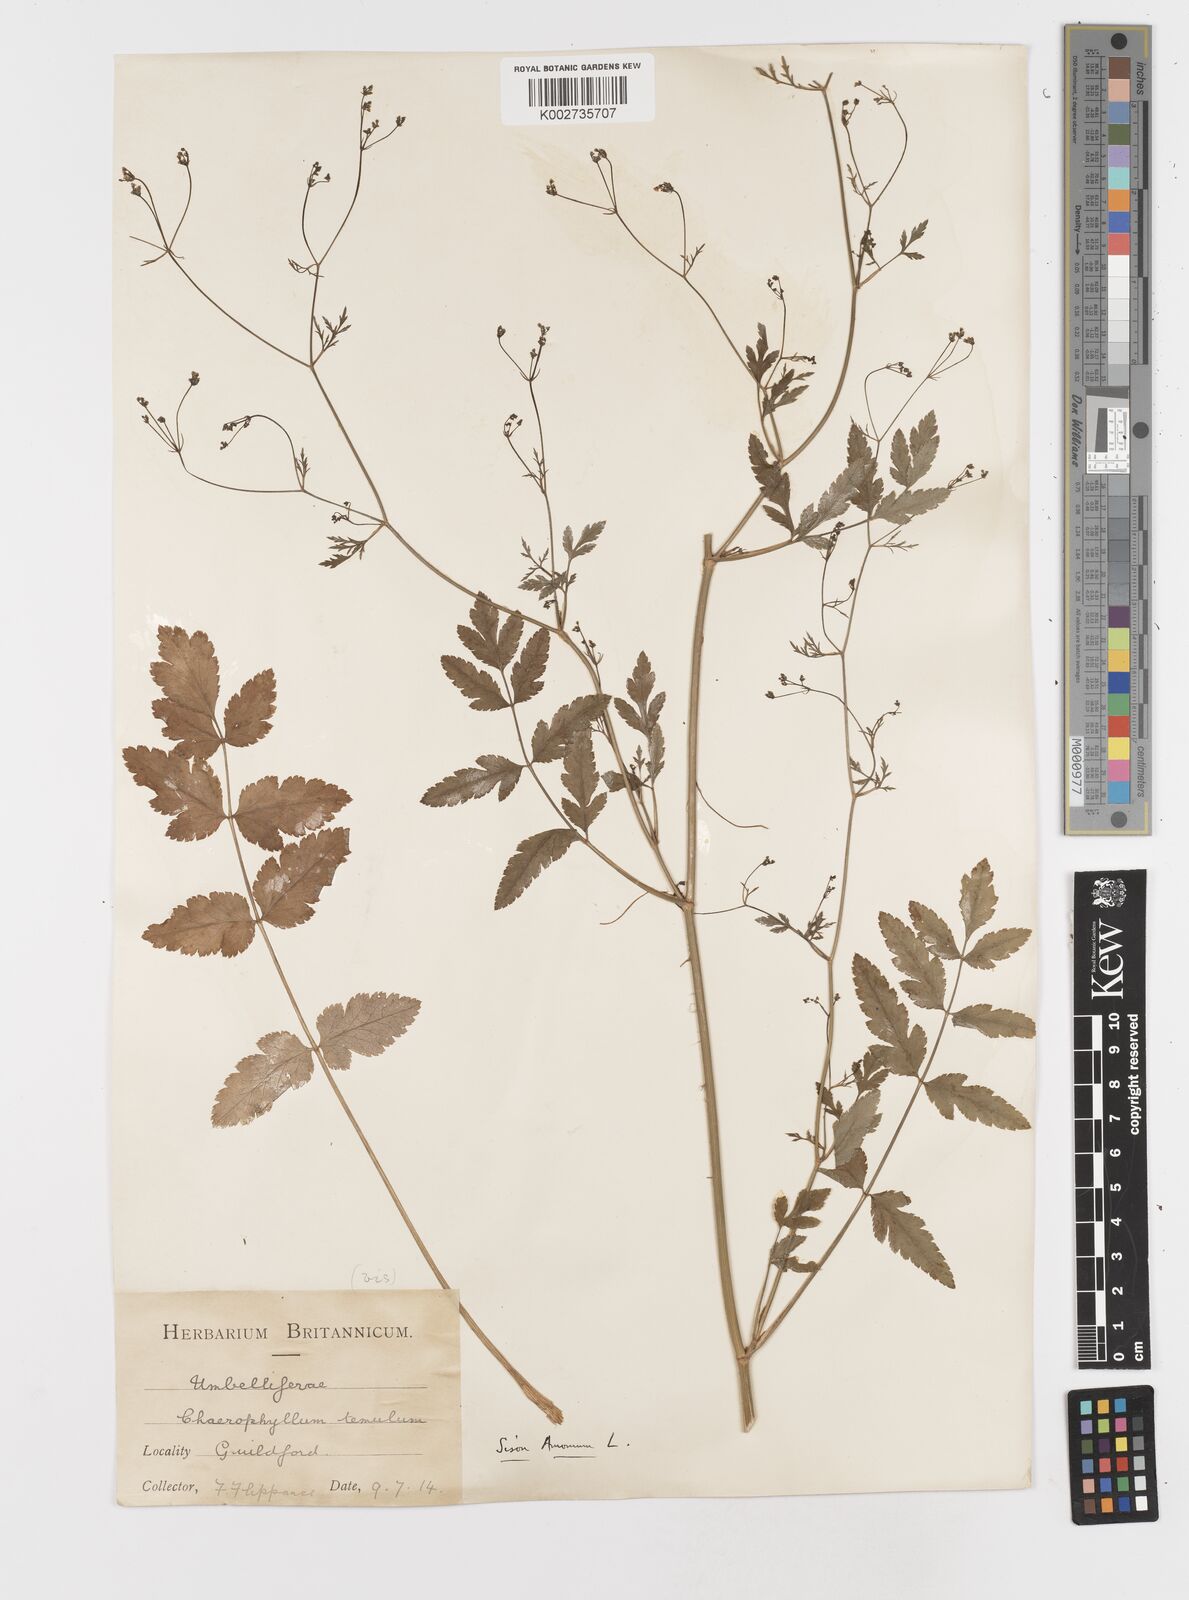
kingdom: Plantae
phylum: Tracheophyta
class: Magnoliopsida
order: Apiales
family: Apiaceae
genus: Sison
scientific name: Sison amomum
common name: Stone-parsley
